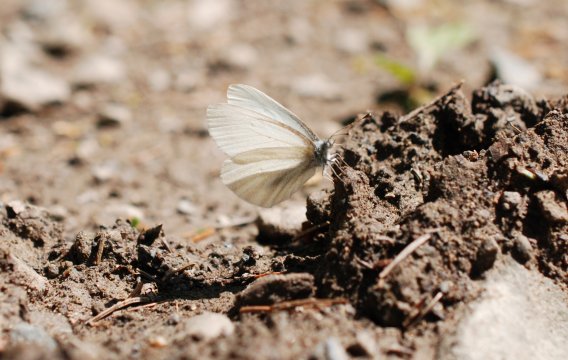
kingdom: Animalia
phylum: Arthropoda
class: Insecta
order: Lepidoptera
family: Pieridae
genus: Pieris
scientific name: Pieris virginiensis
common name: West Virginia White
